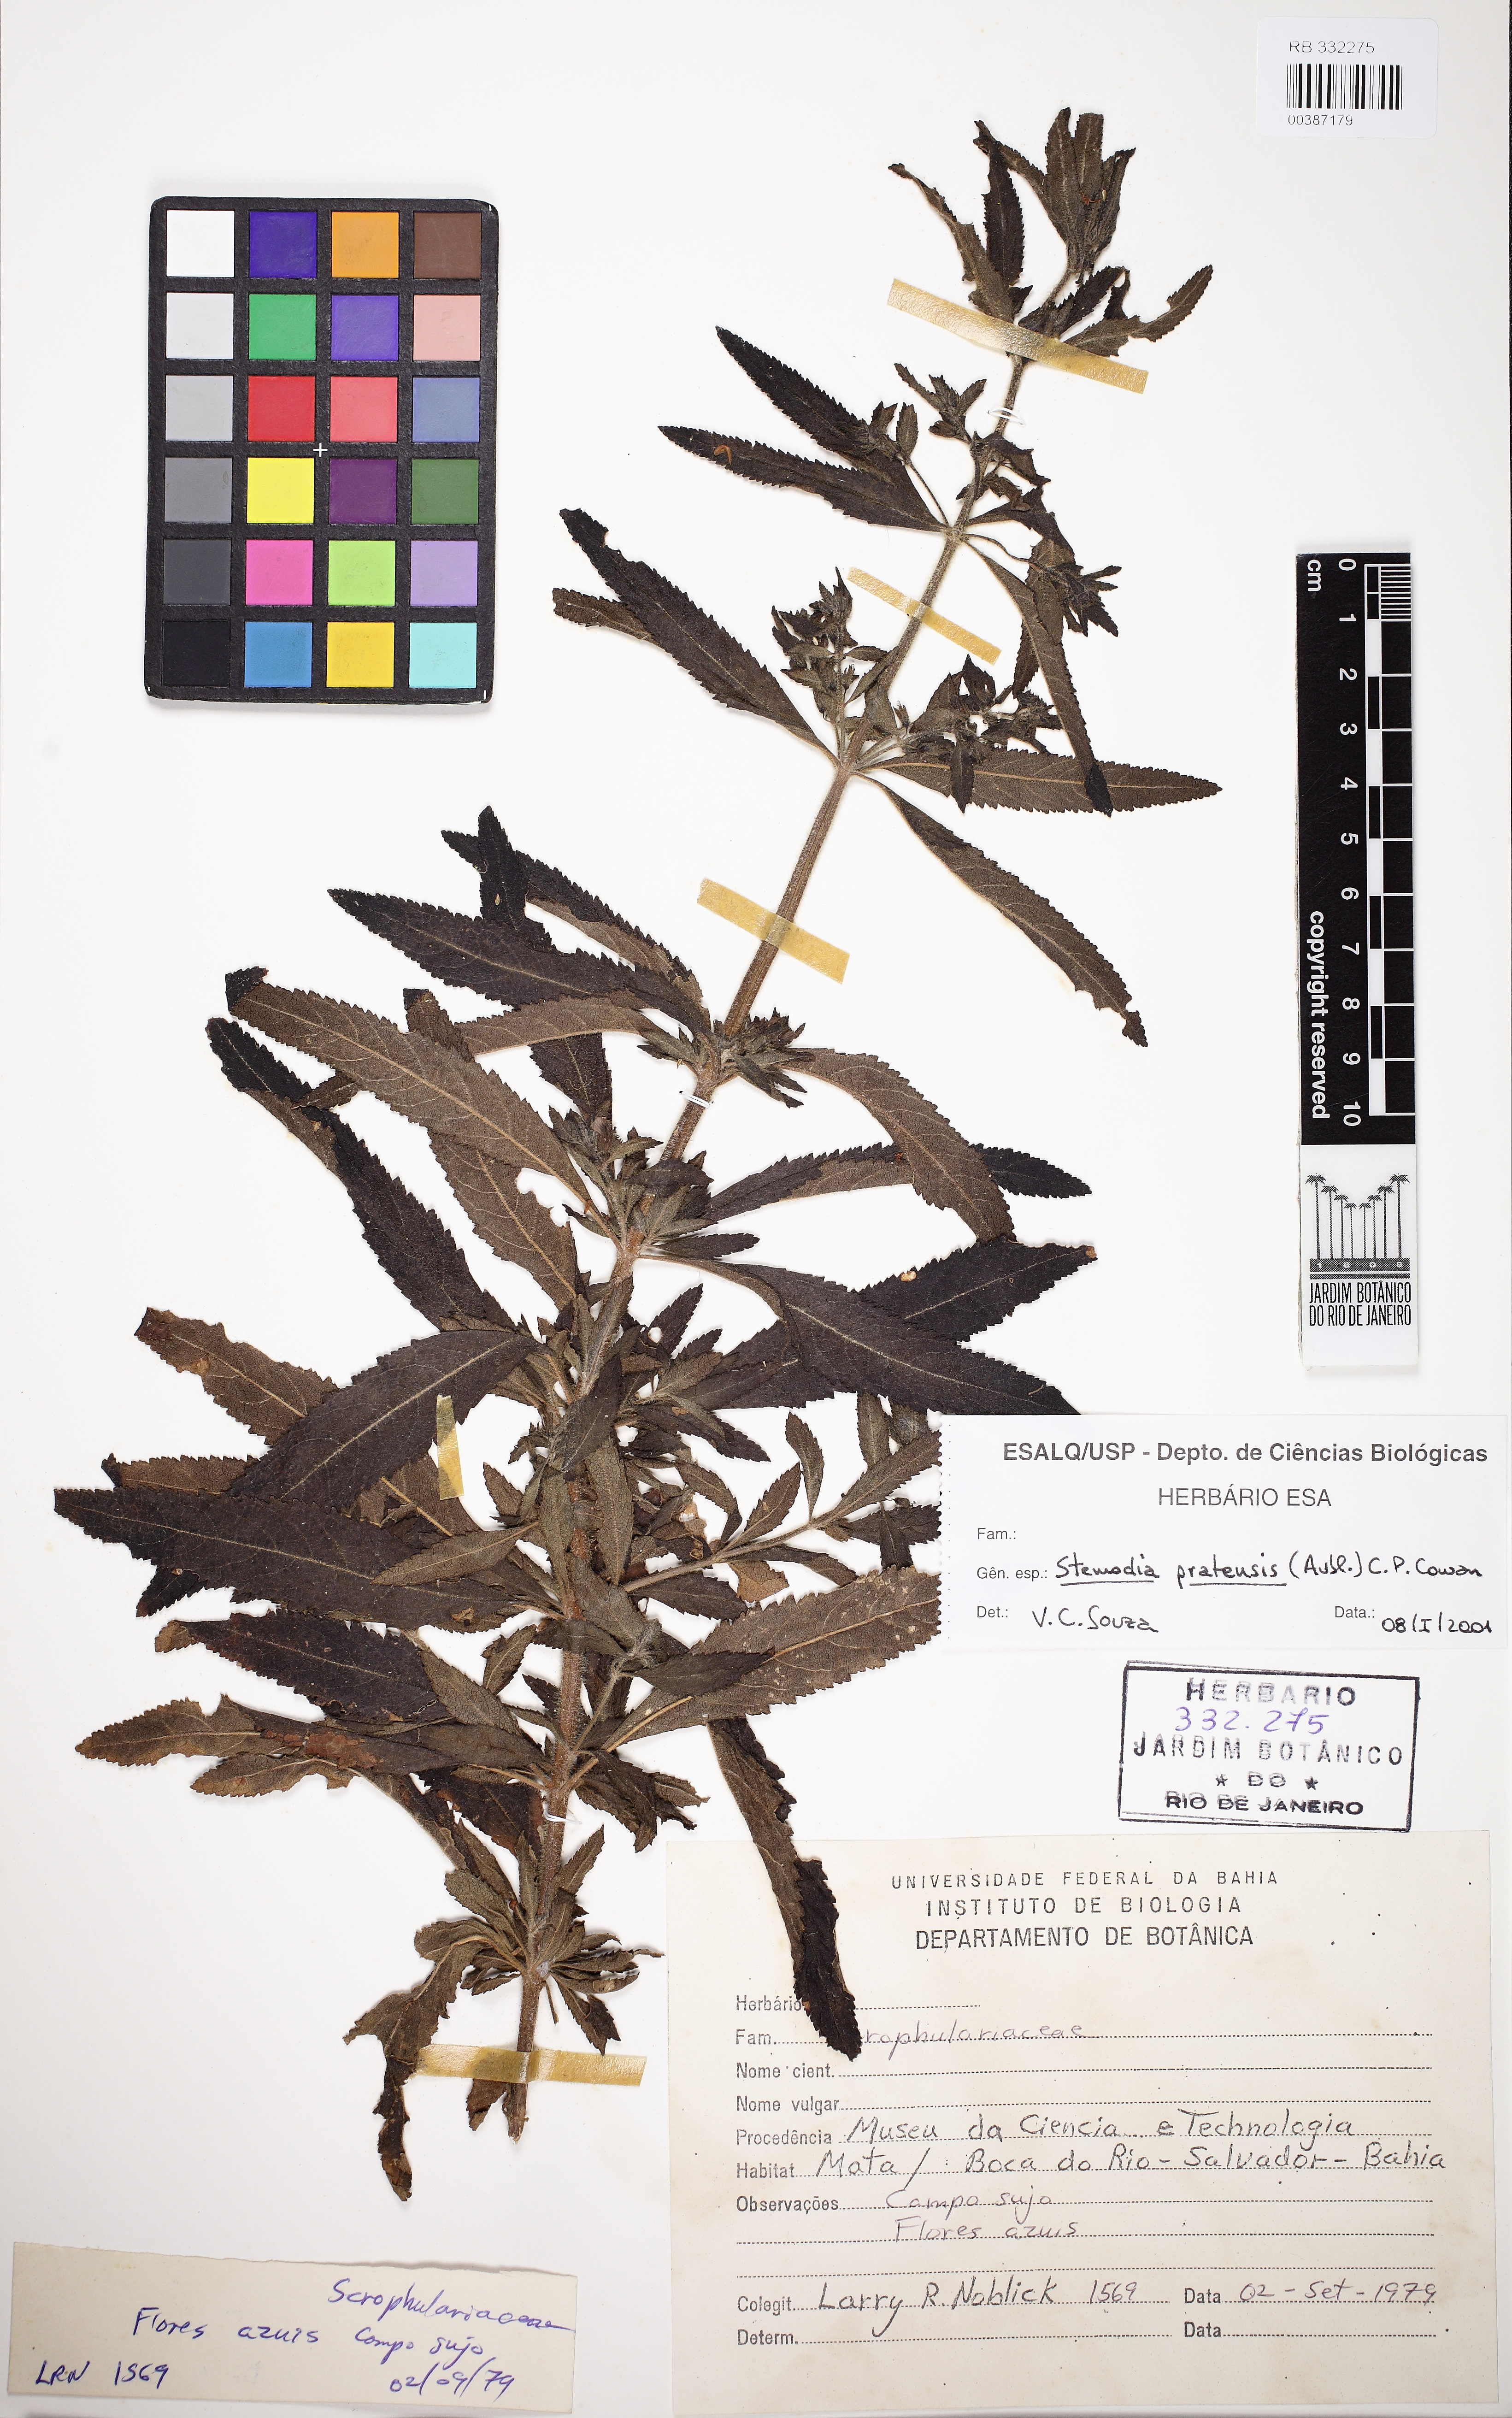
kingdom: Plantae
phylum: Tracheophyta
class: Magnoliopsida
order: Lamiales
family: Plantaginaceae
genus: Stemodia
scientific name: Stemodia foliosa
